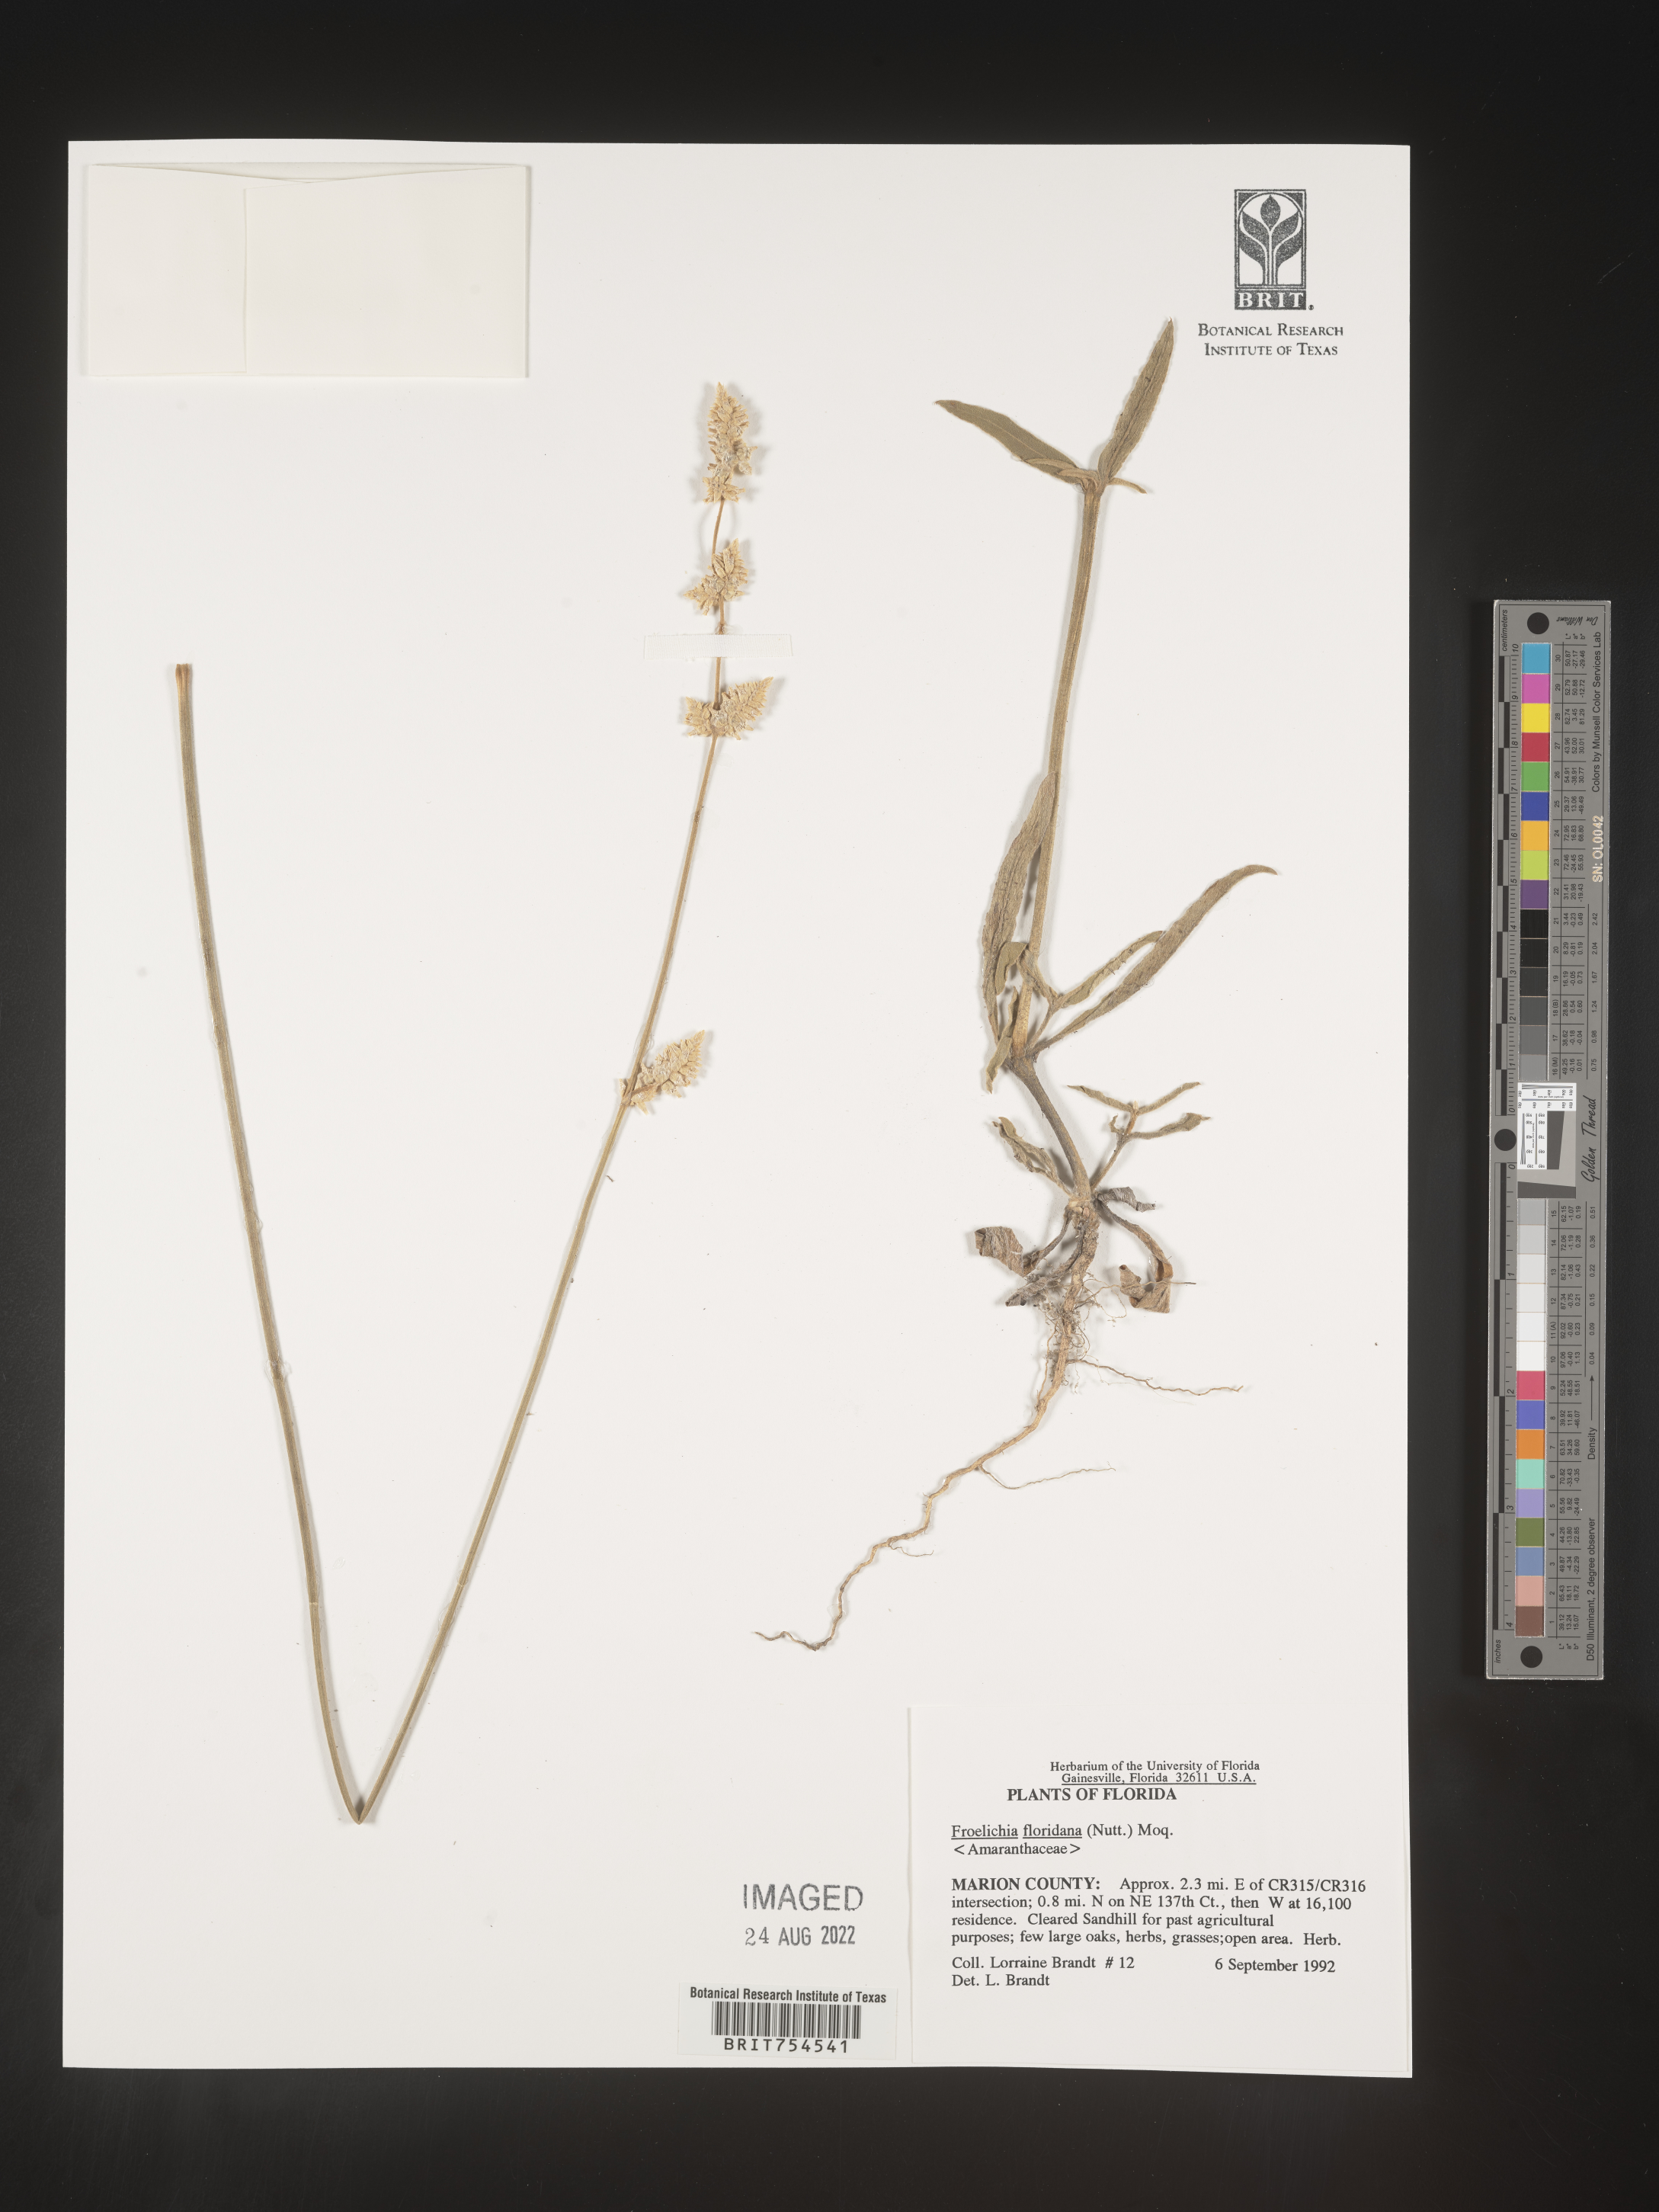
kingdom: Plantae
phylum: Tracheophyta
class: Magnoliopsida
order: Caryophyllales
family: Amaranthaceae
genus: Froelichia
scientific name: Froelichia
